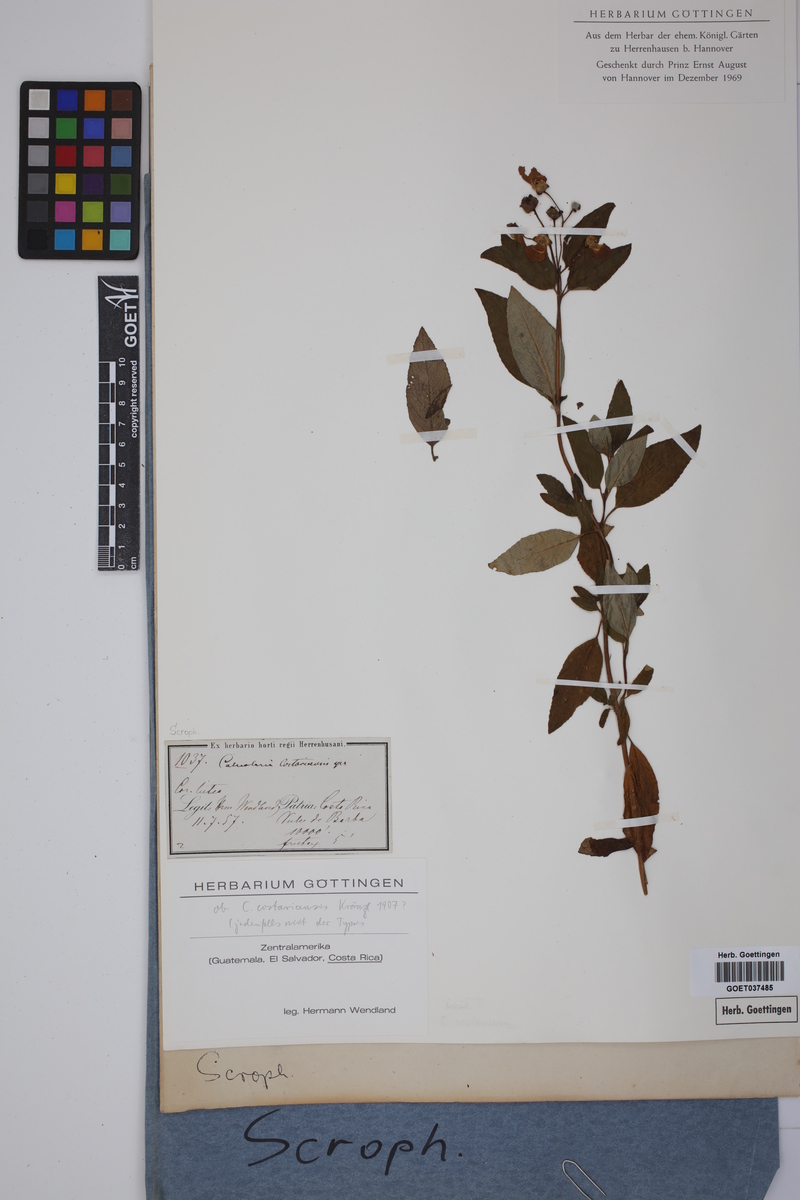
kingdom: Plantae
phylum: Tracheophyta
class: Magnoliopsida
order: Lamiales
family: Calceolariaceae
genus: Calceolaria
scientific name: Calceolaria irazuensis
